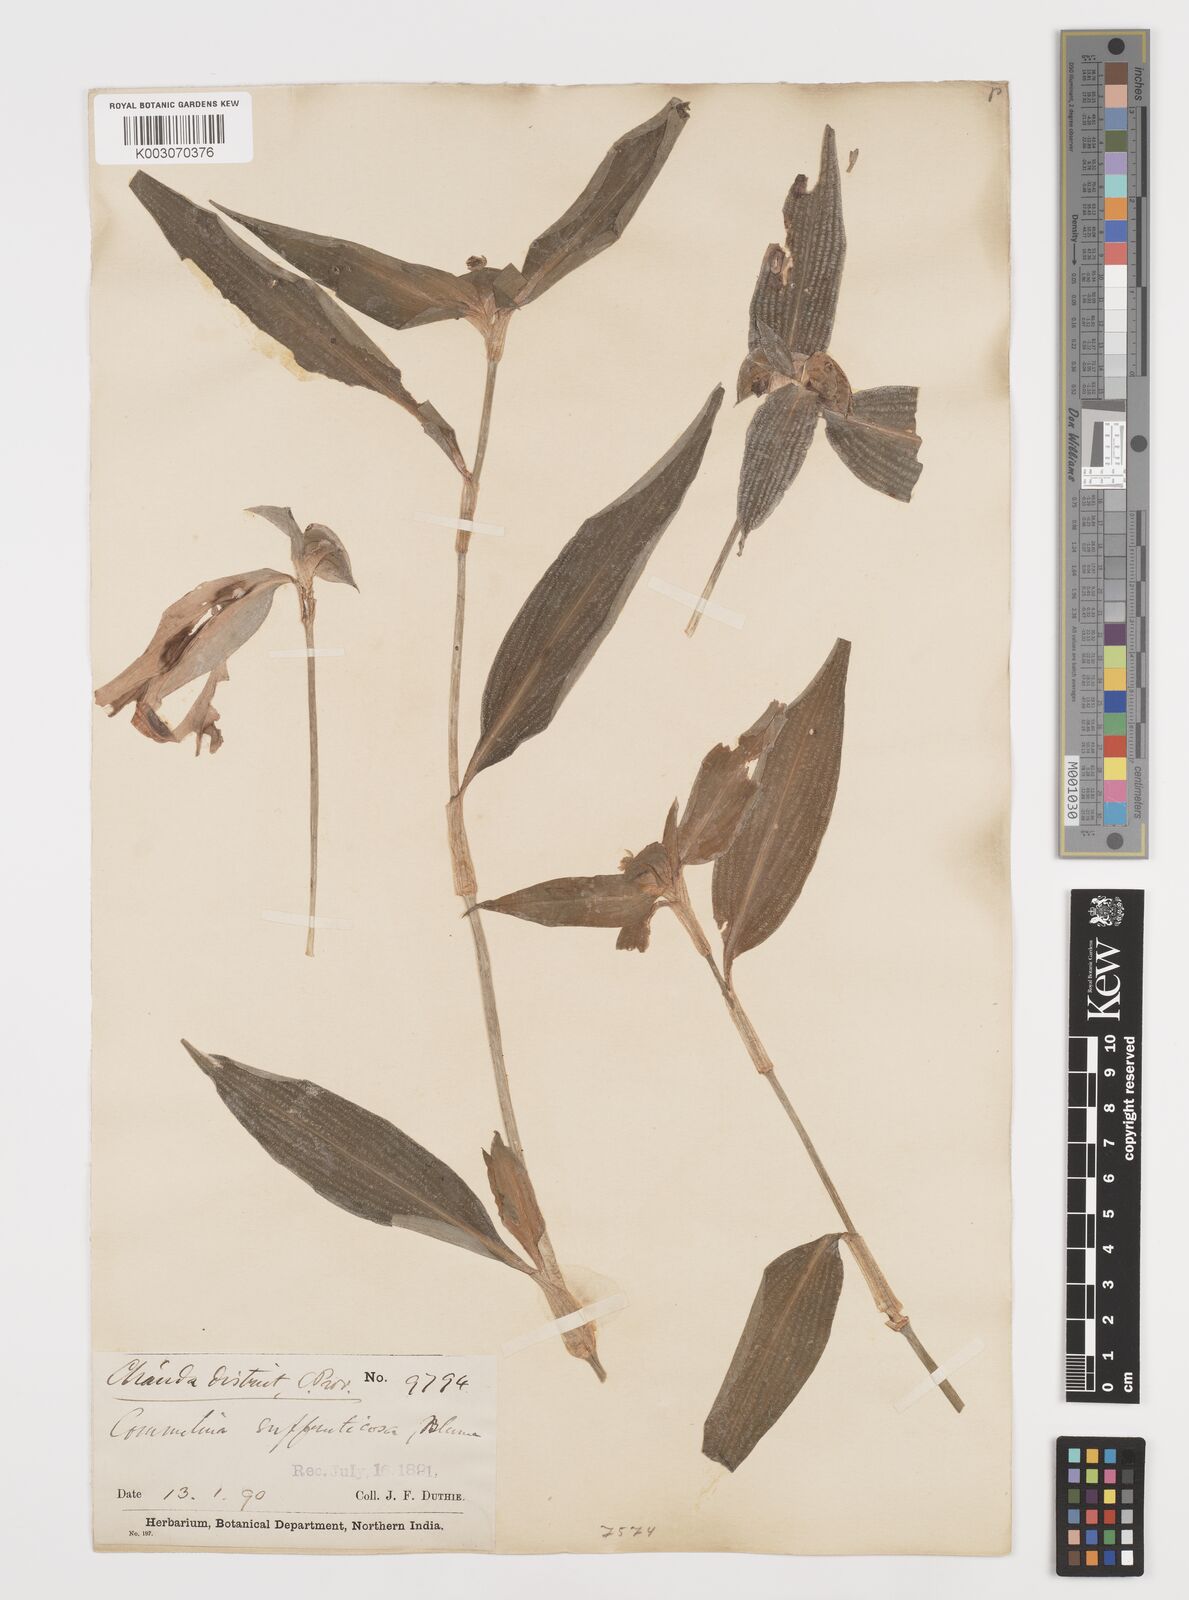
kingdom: Plantae
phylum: Tracheophyta
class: Liliopsida
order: Commelinales
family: Commelinaceae
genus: Commelina
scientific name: Commelina suffruticosa
